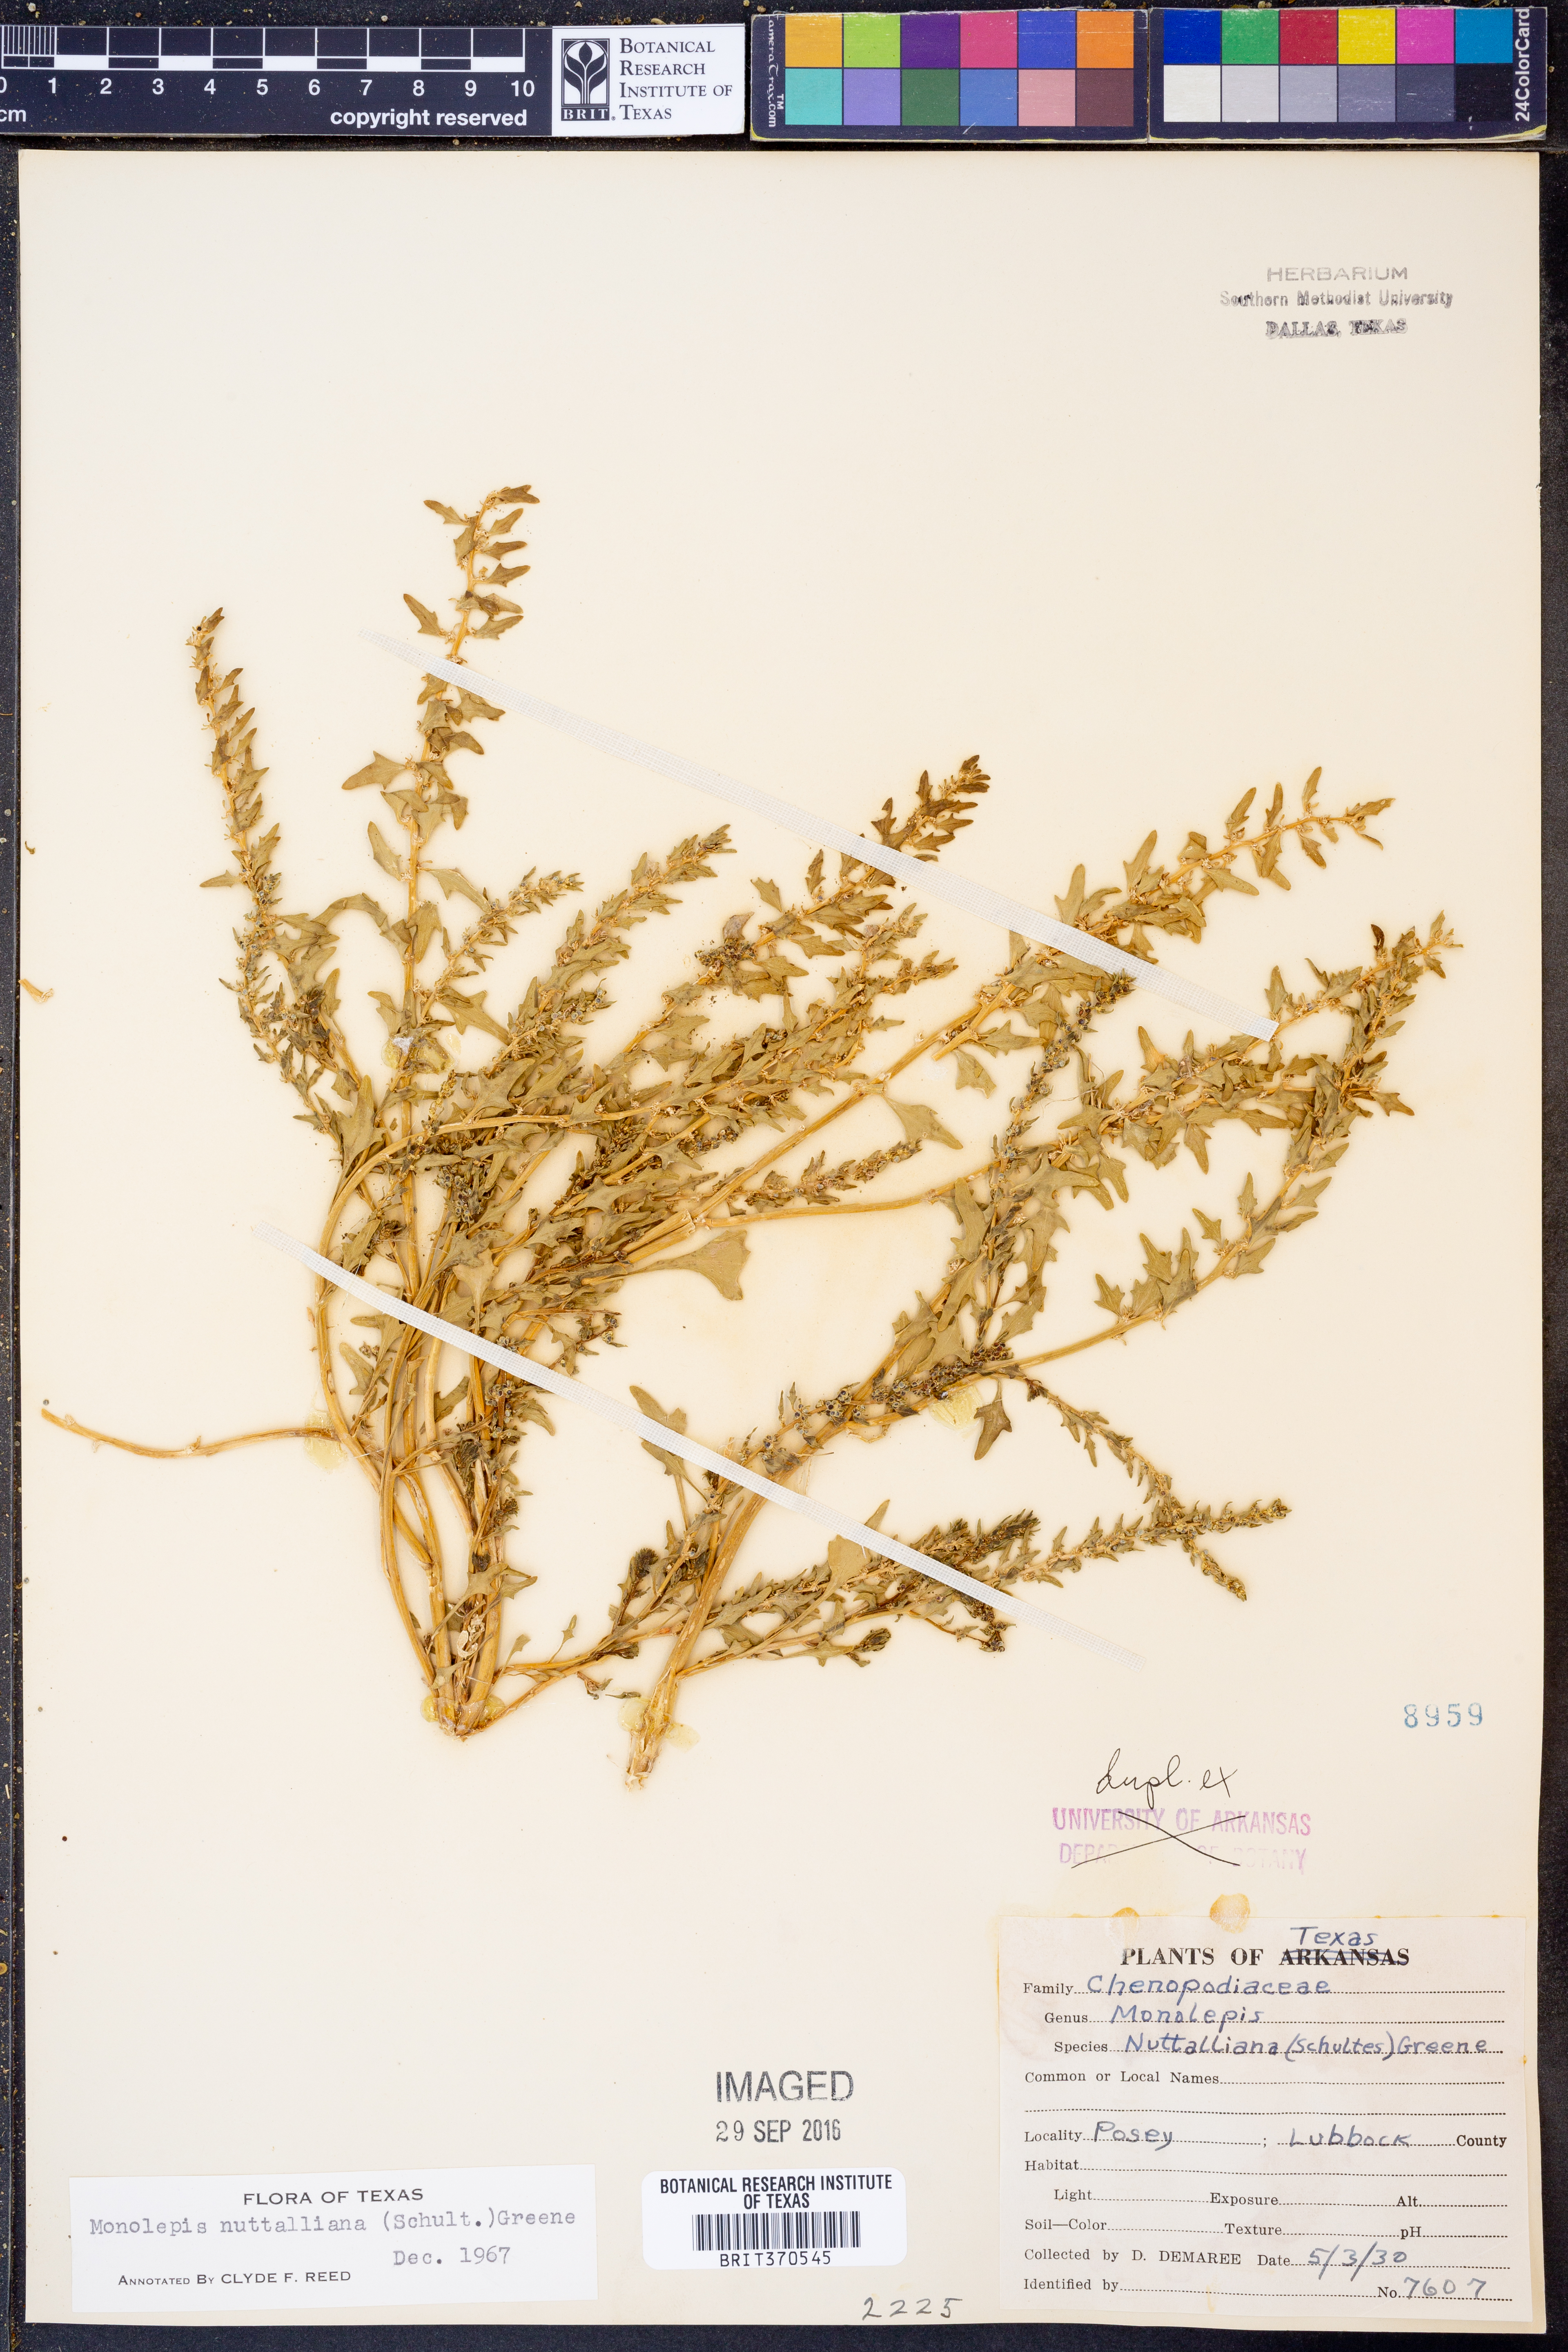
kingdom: Plantae
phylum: Tracheophyta
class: Magnoliopsida
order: Caryophyllales
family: Amaranthaceae
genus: Blitum
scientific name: Blitum nuttallianum
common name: Poverty-weed
